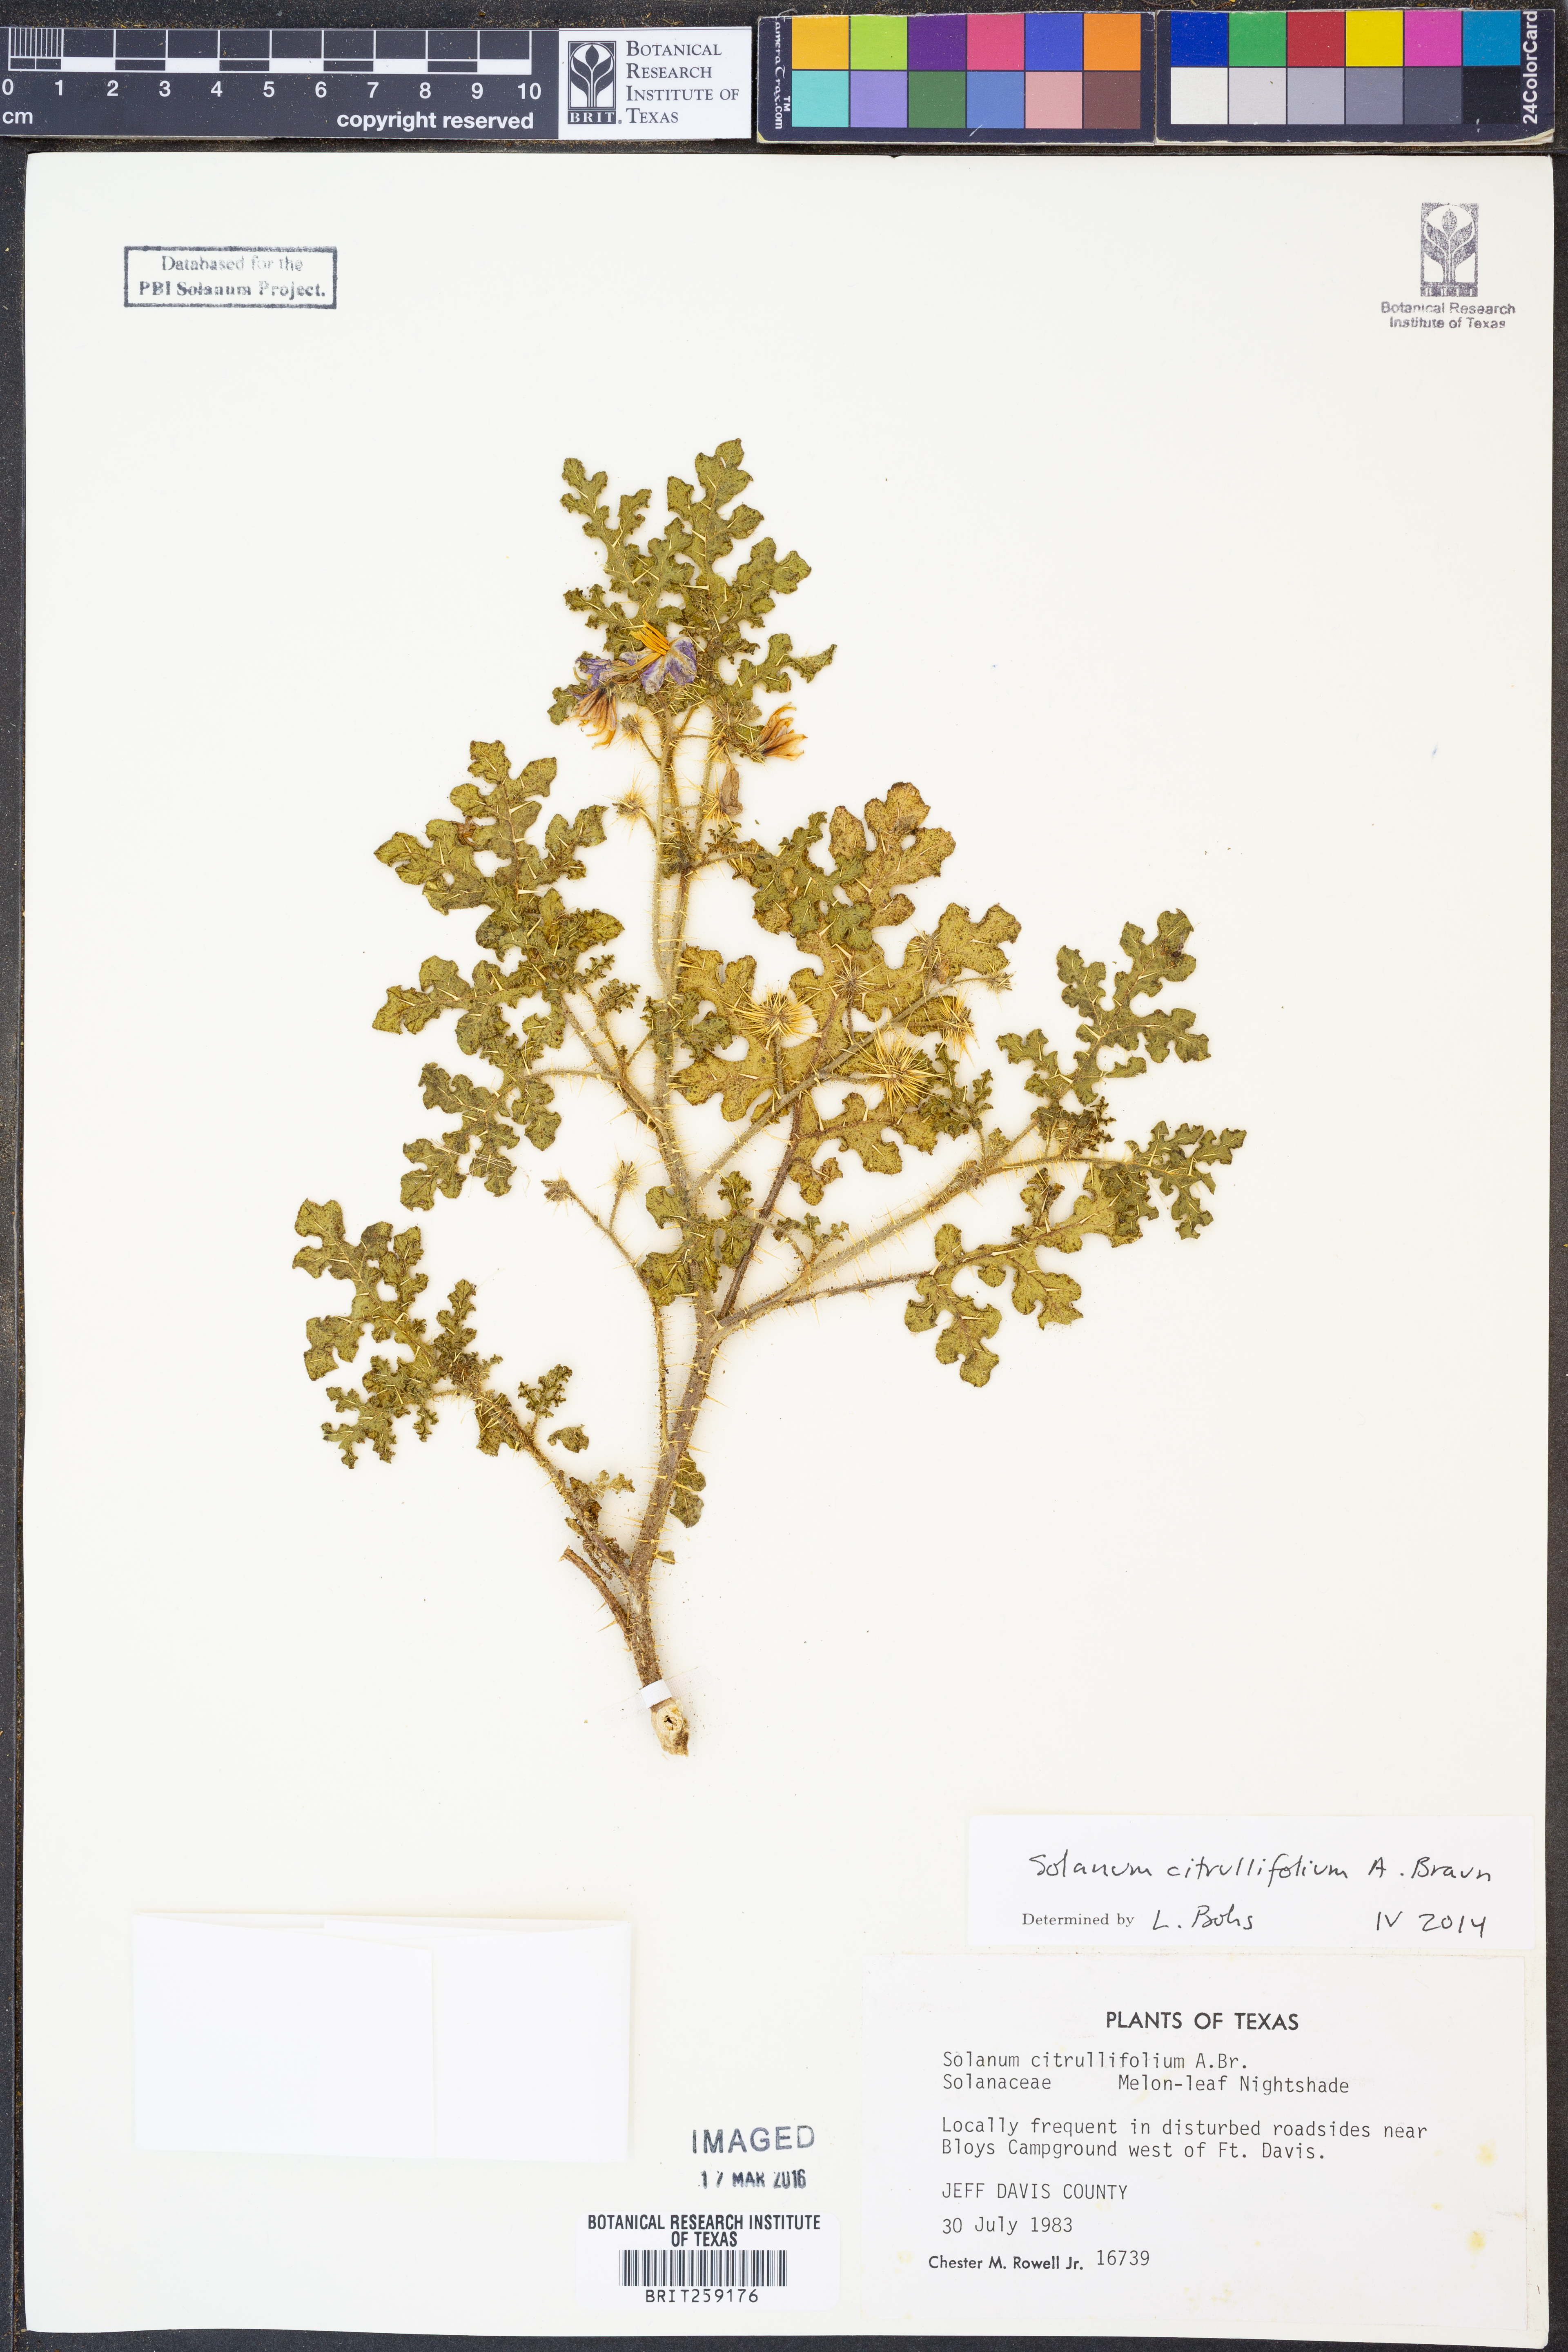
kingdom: Plantae
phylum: Tracheophyta
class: Magnoliopsida
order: Solanales
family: Solanaceae
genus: Solanum
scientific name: Solanum citrullifolium
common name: Melon-leaf nightshade
